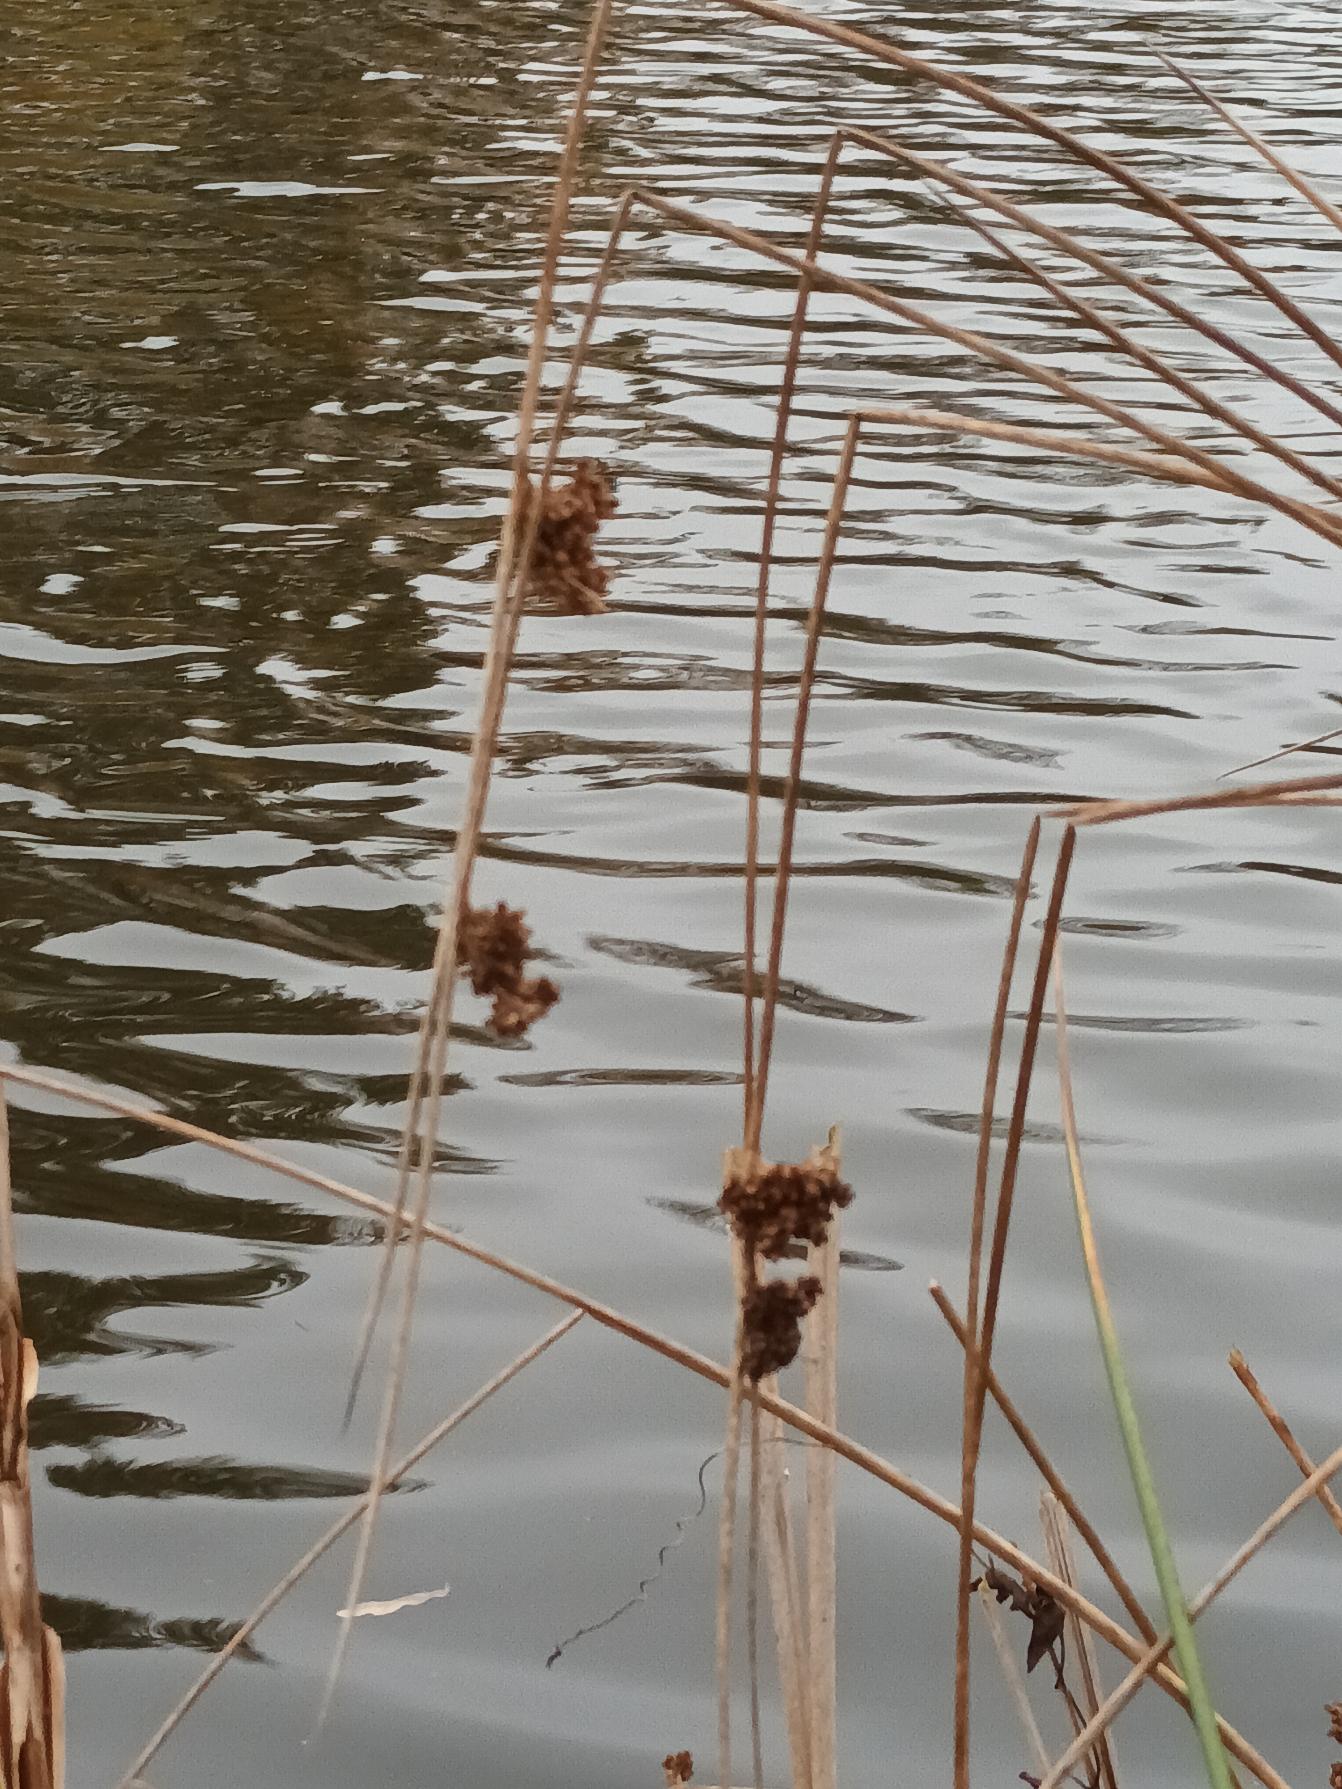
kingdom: Plantae
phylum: Tracheophyta
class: Liliopsida
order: Poales
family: Juncaceae
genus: Juncus
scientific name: Juncus effusus
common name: Lyse-siv
